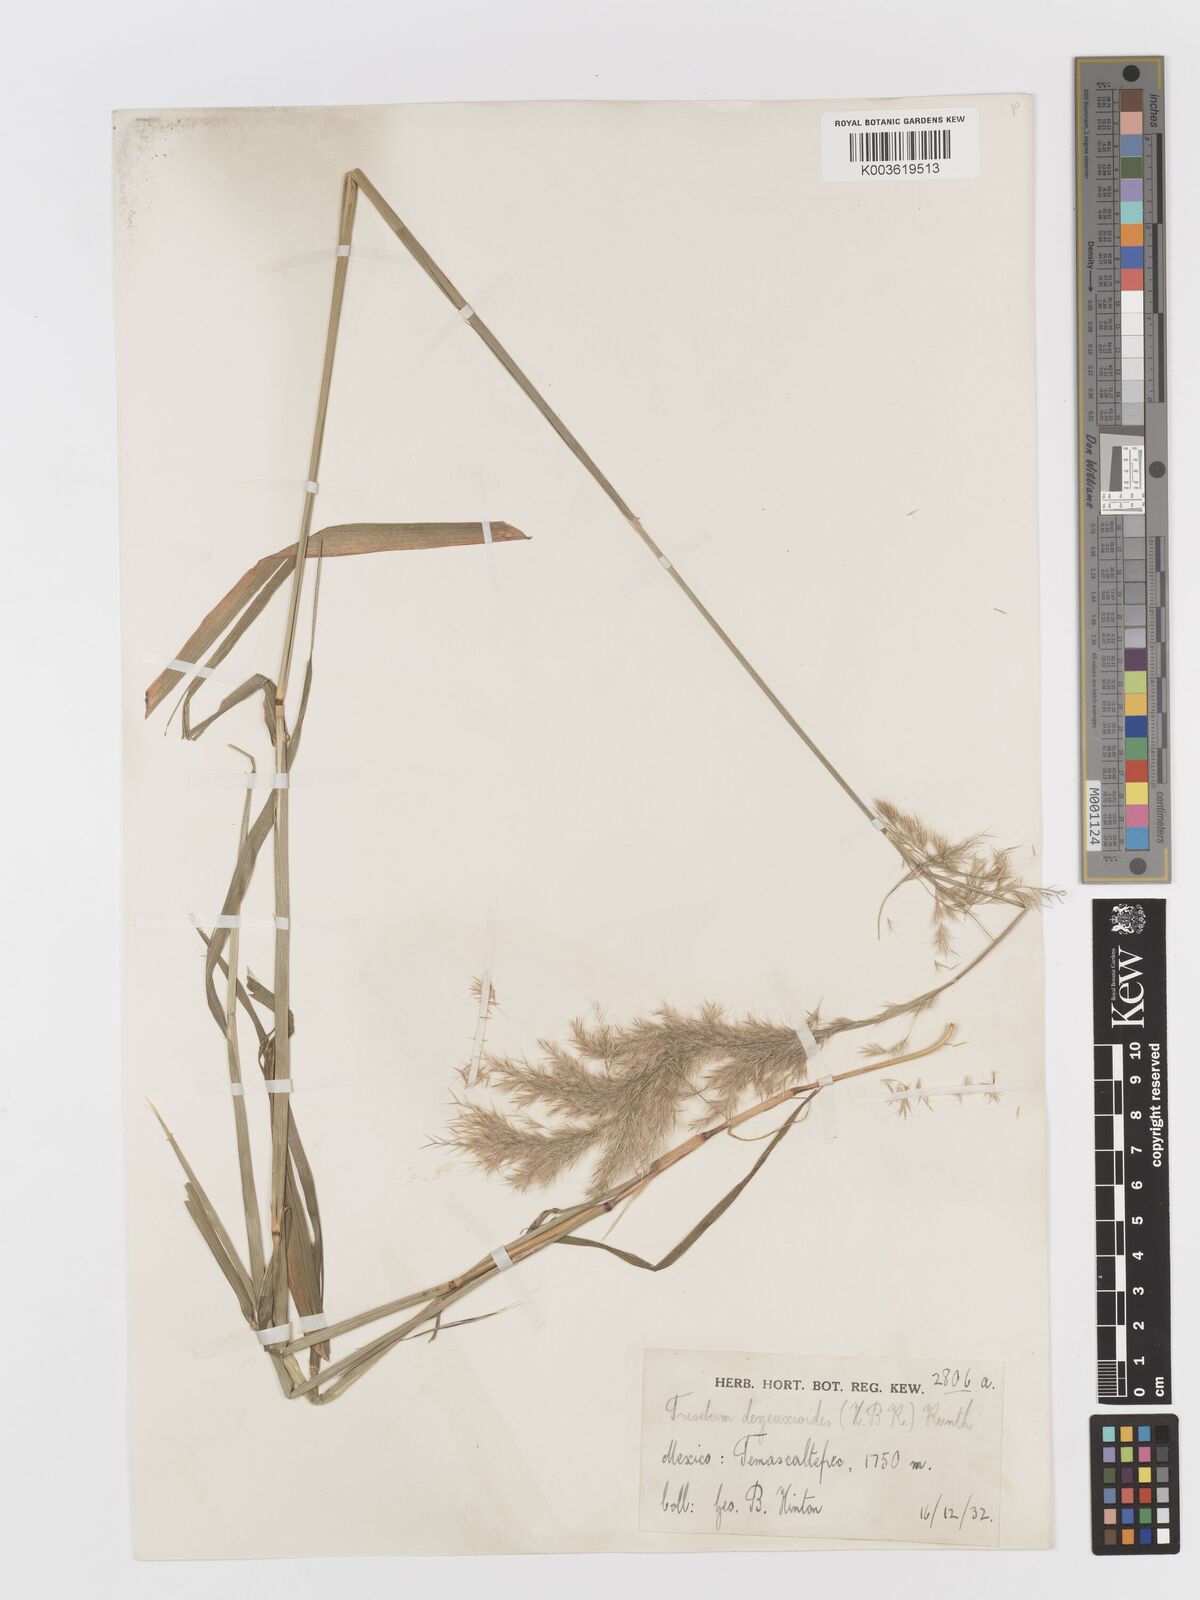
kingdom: Plantae
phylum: Tracheophyta
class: Liliopsida
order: Poales
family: Poaceae
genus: Peyritschia
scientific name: Peyritschia deyeuxioides
